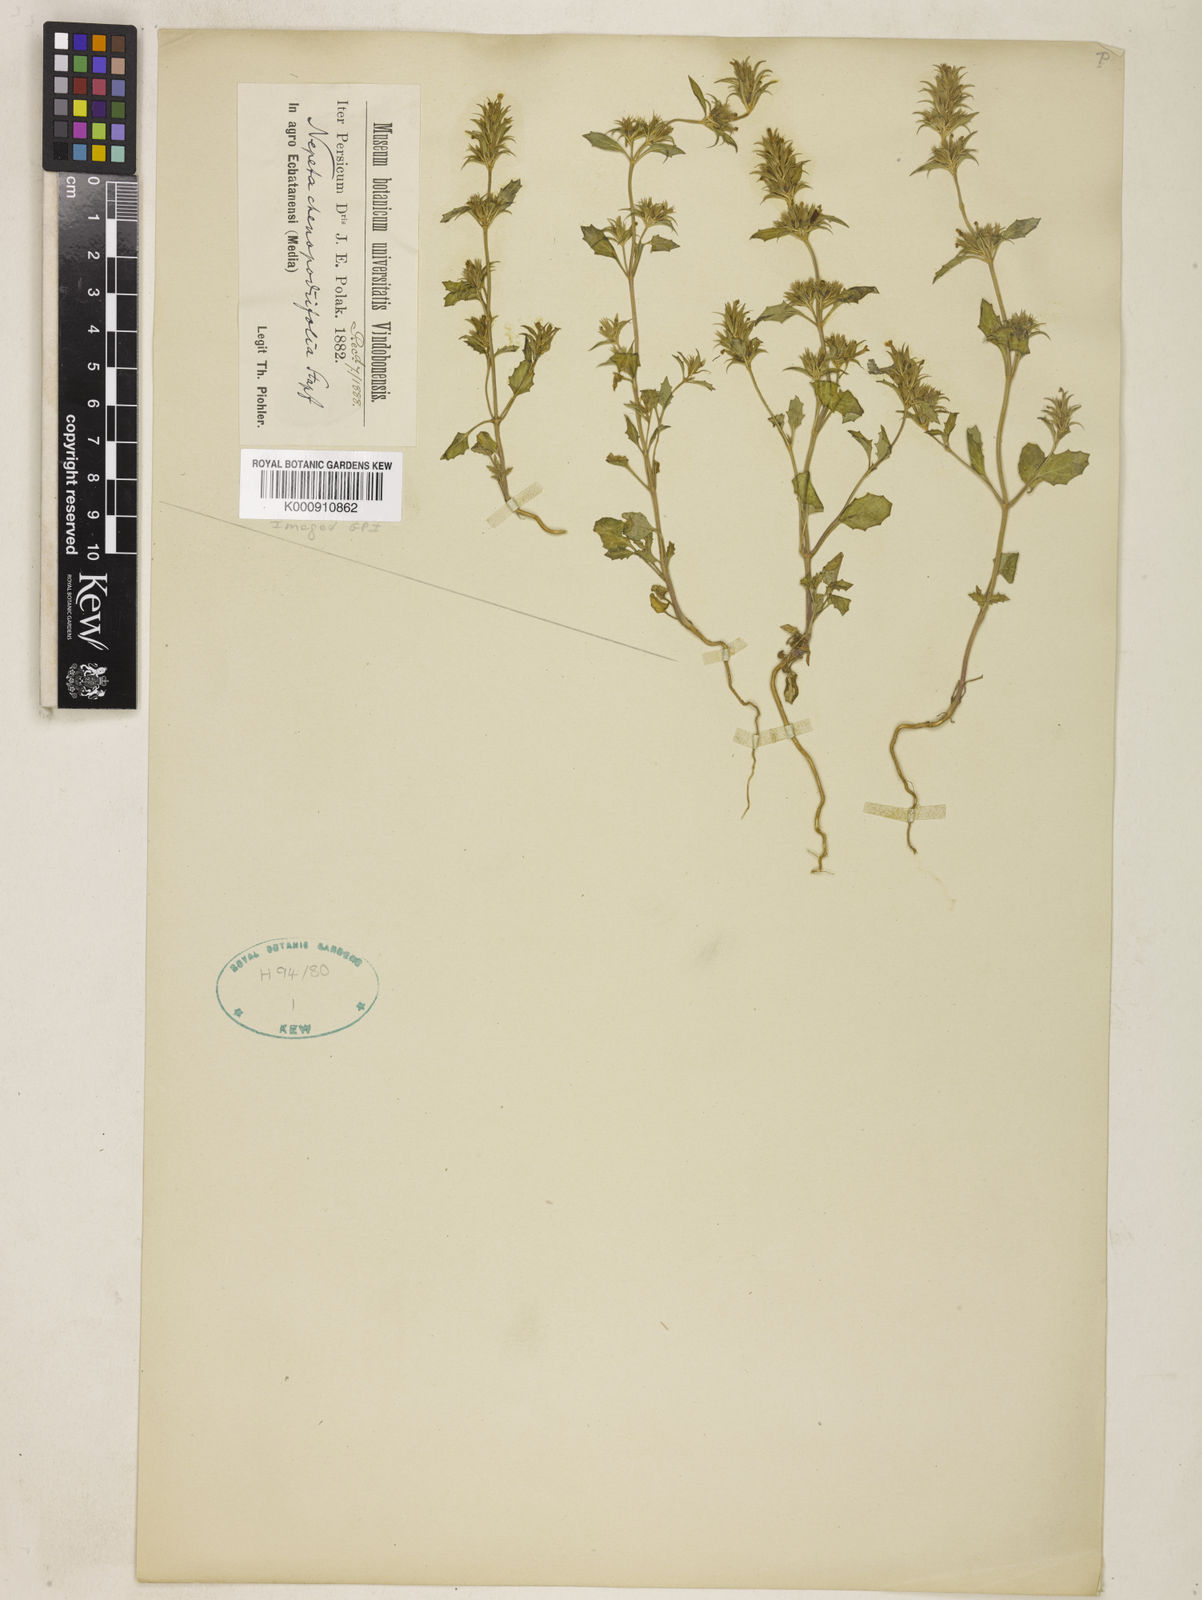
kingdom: Plantae
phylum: Tracheophyta
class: Magnoliopsida
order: Lamiales
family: Lamiaceae
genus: Nepeta
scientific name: Nepeta pungens
